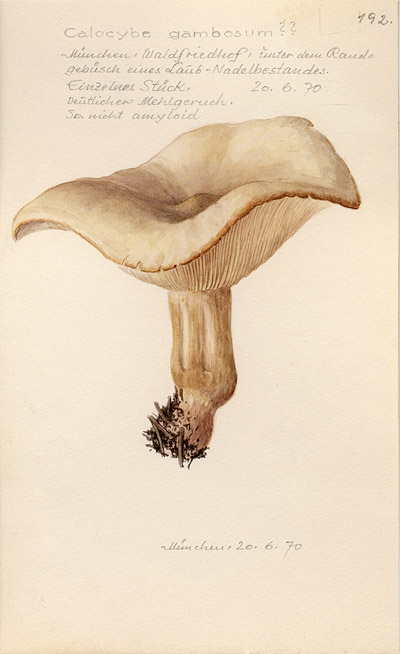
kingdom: Fungi
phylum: Basidiomycota
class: Agaricomycetes
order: Agaricales
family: Lyophyllaceae
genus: Calocybe
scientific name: Calocybe gambosa
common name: St. george's mushroom
